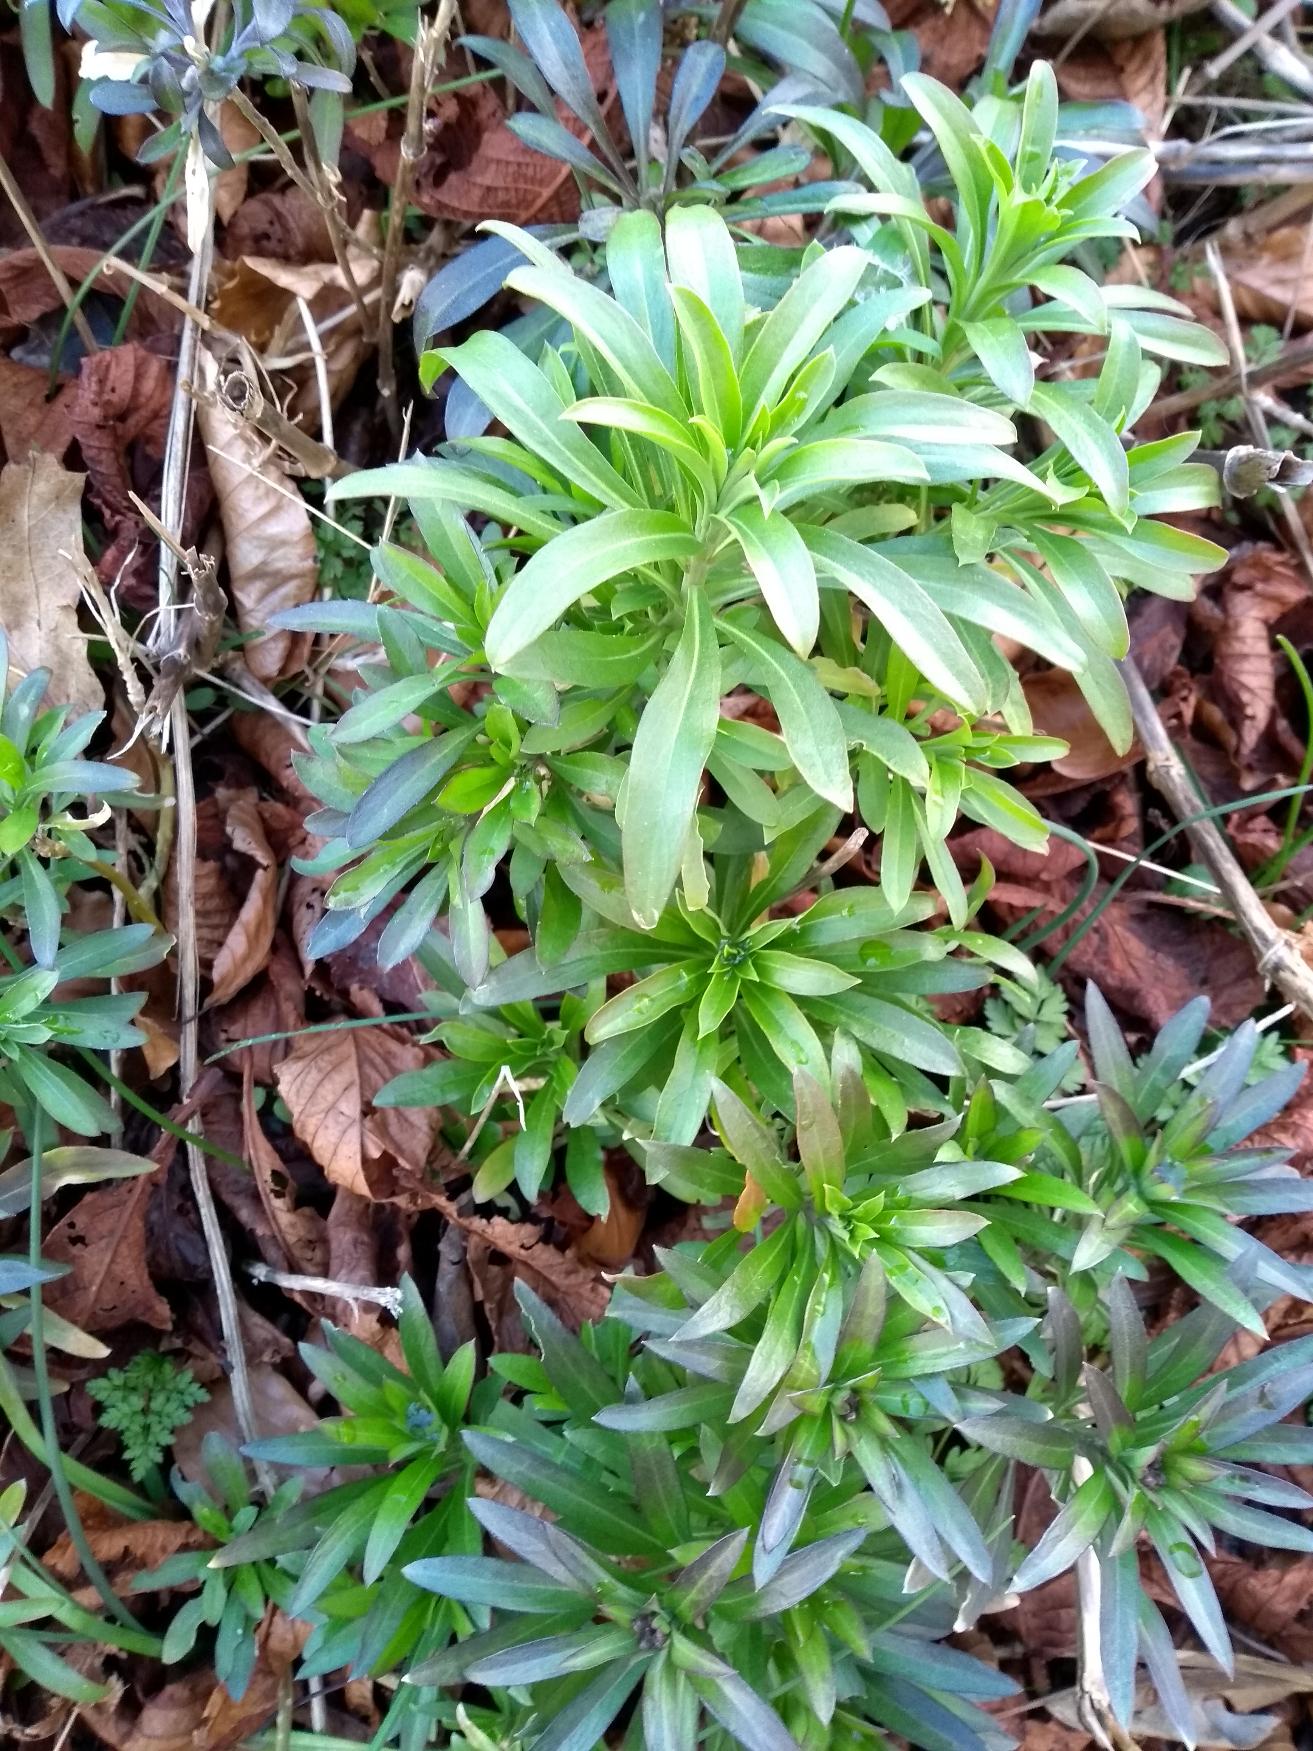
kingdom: Plantae
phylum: Tracheophyta
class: Magnoliopsida
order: Brassicales
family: Brassicaceae
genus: Erysimum
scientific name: Erysimum cheiri
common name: Gyldenlak
